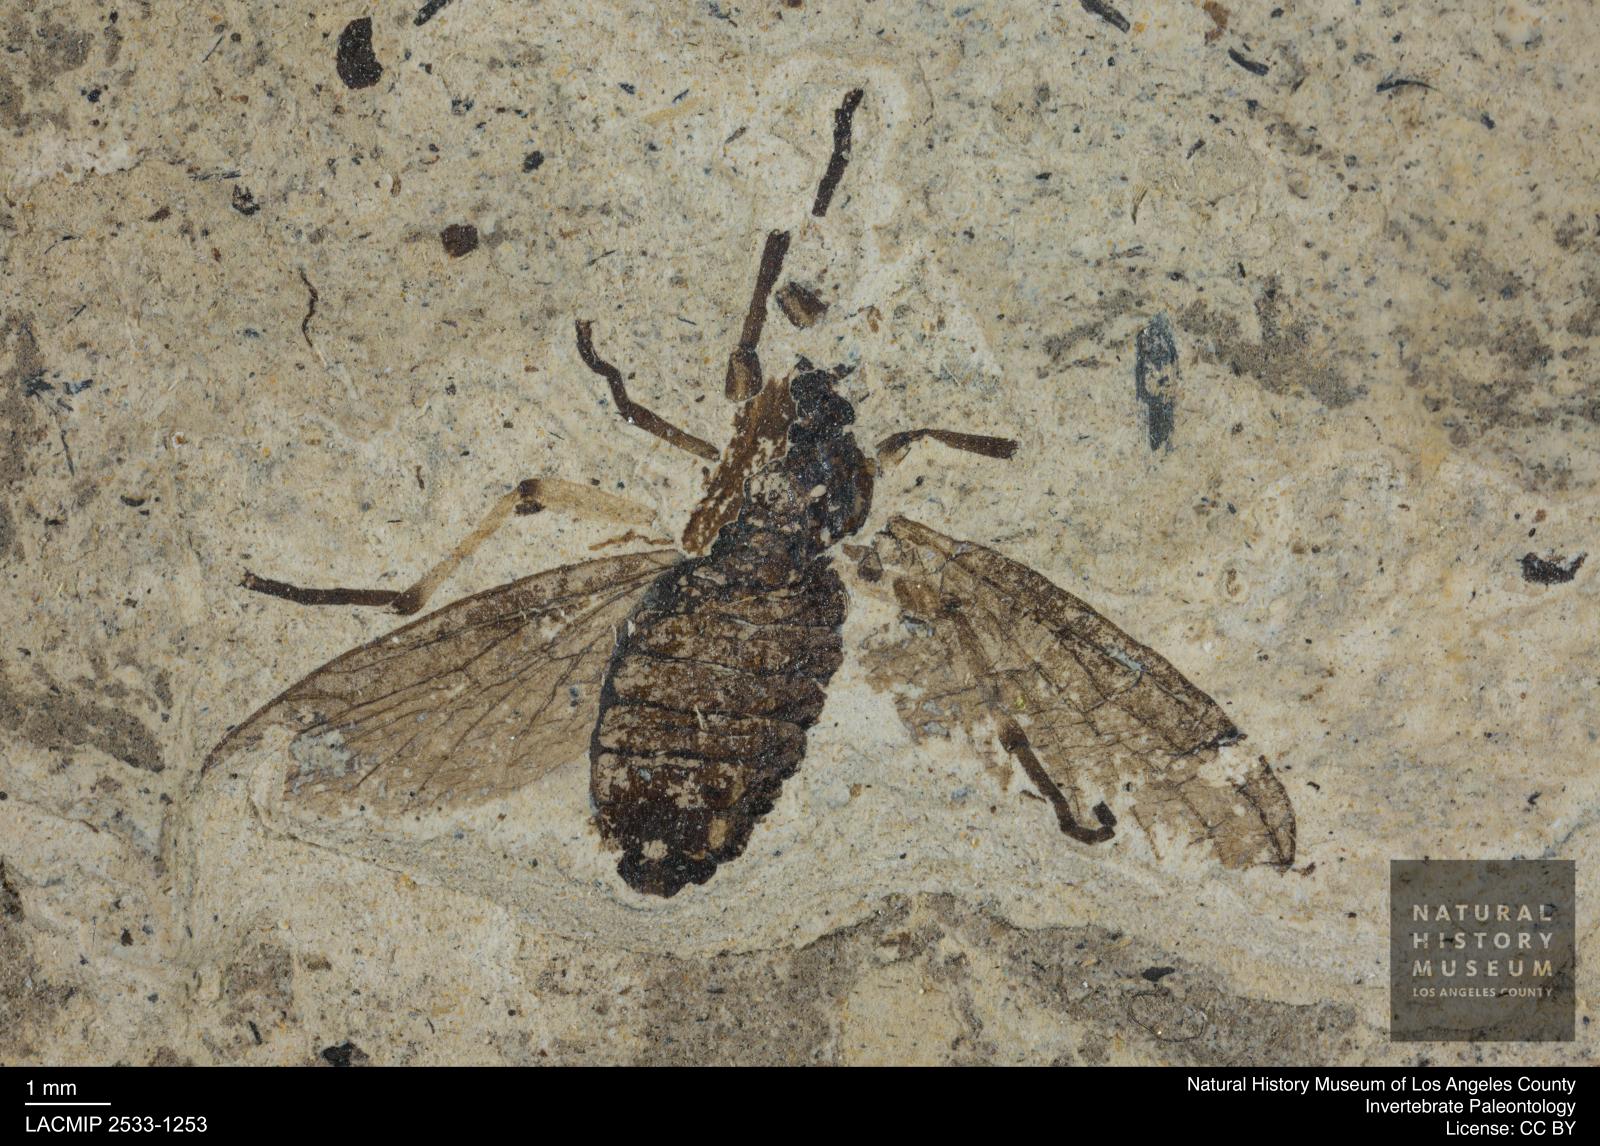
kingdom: Animalia
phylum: Arthropoda
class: Insecta
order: Diptera
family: Bibionidae
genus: Plecia
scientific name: Plecia hypogaea
